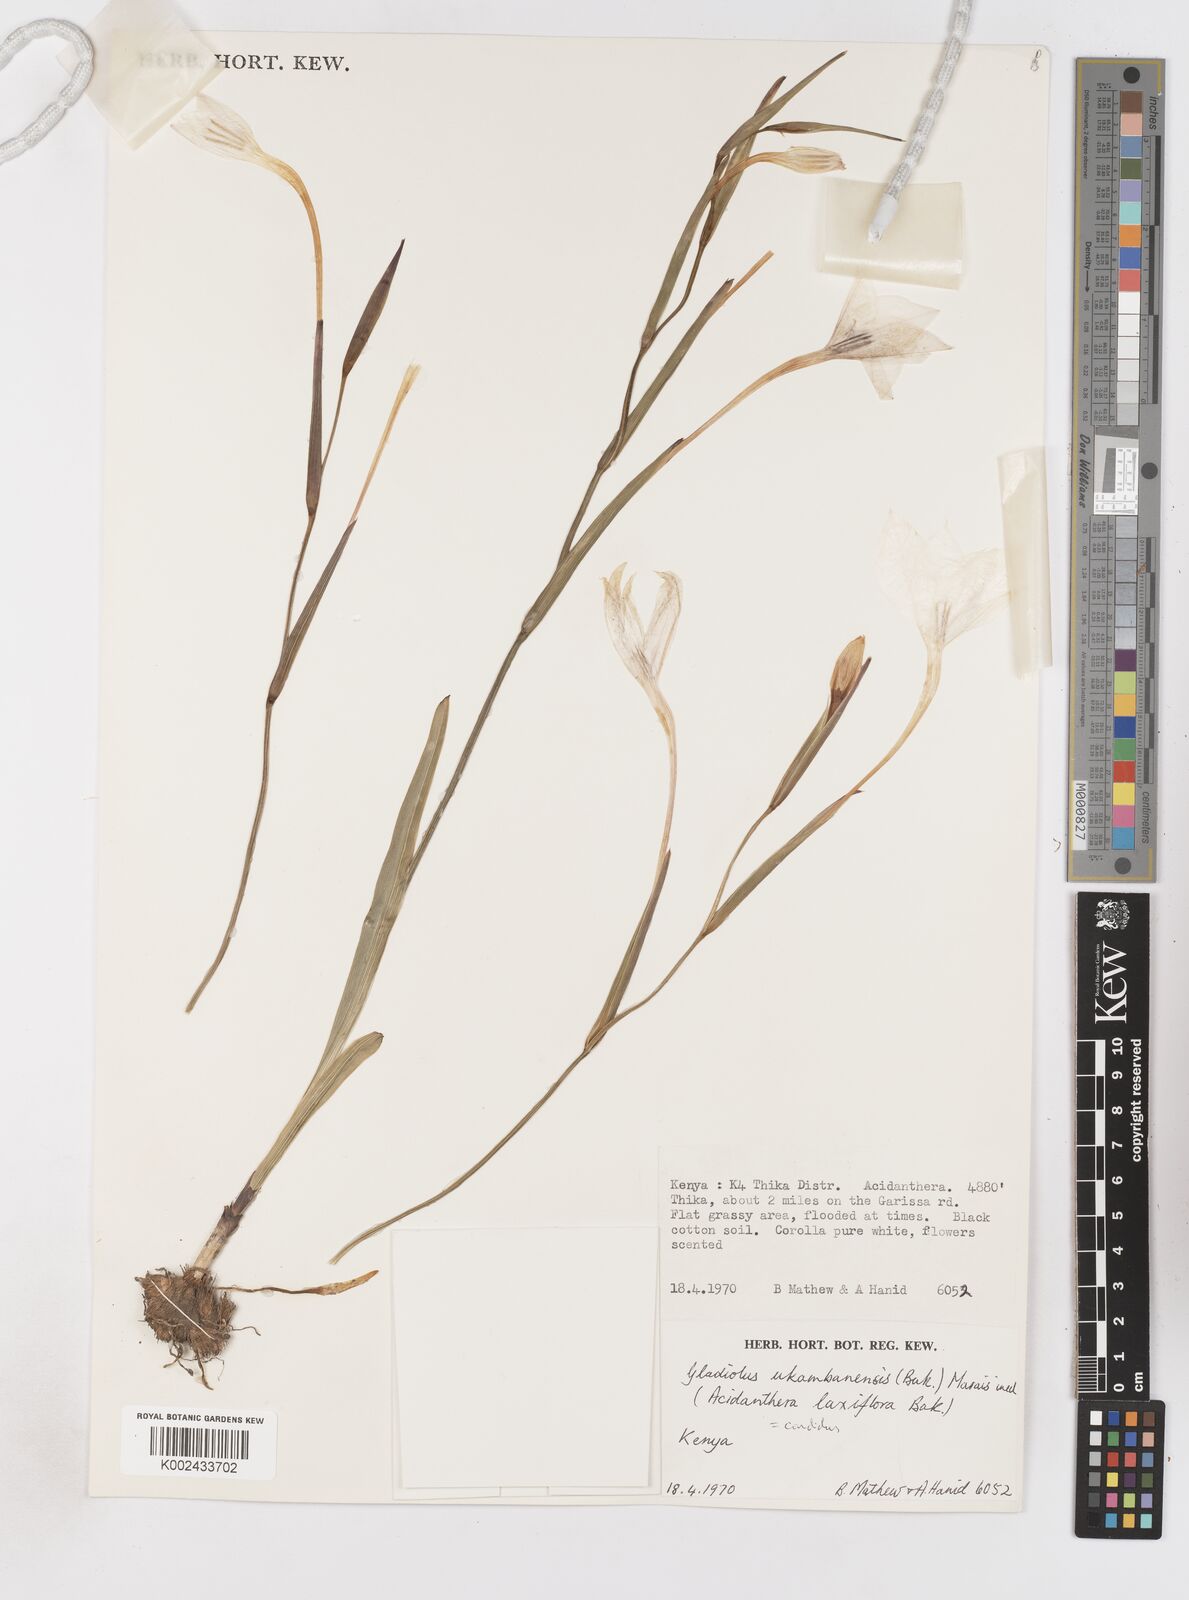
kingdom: Plantae
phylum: Tracheophyta
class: Liliopsida
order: Asparagales
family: Iridaceae
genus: Gladiolus
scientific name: Gladiolus candidus
